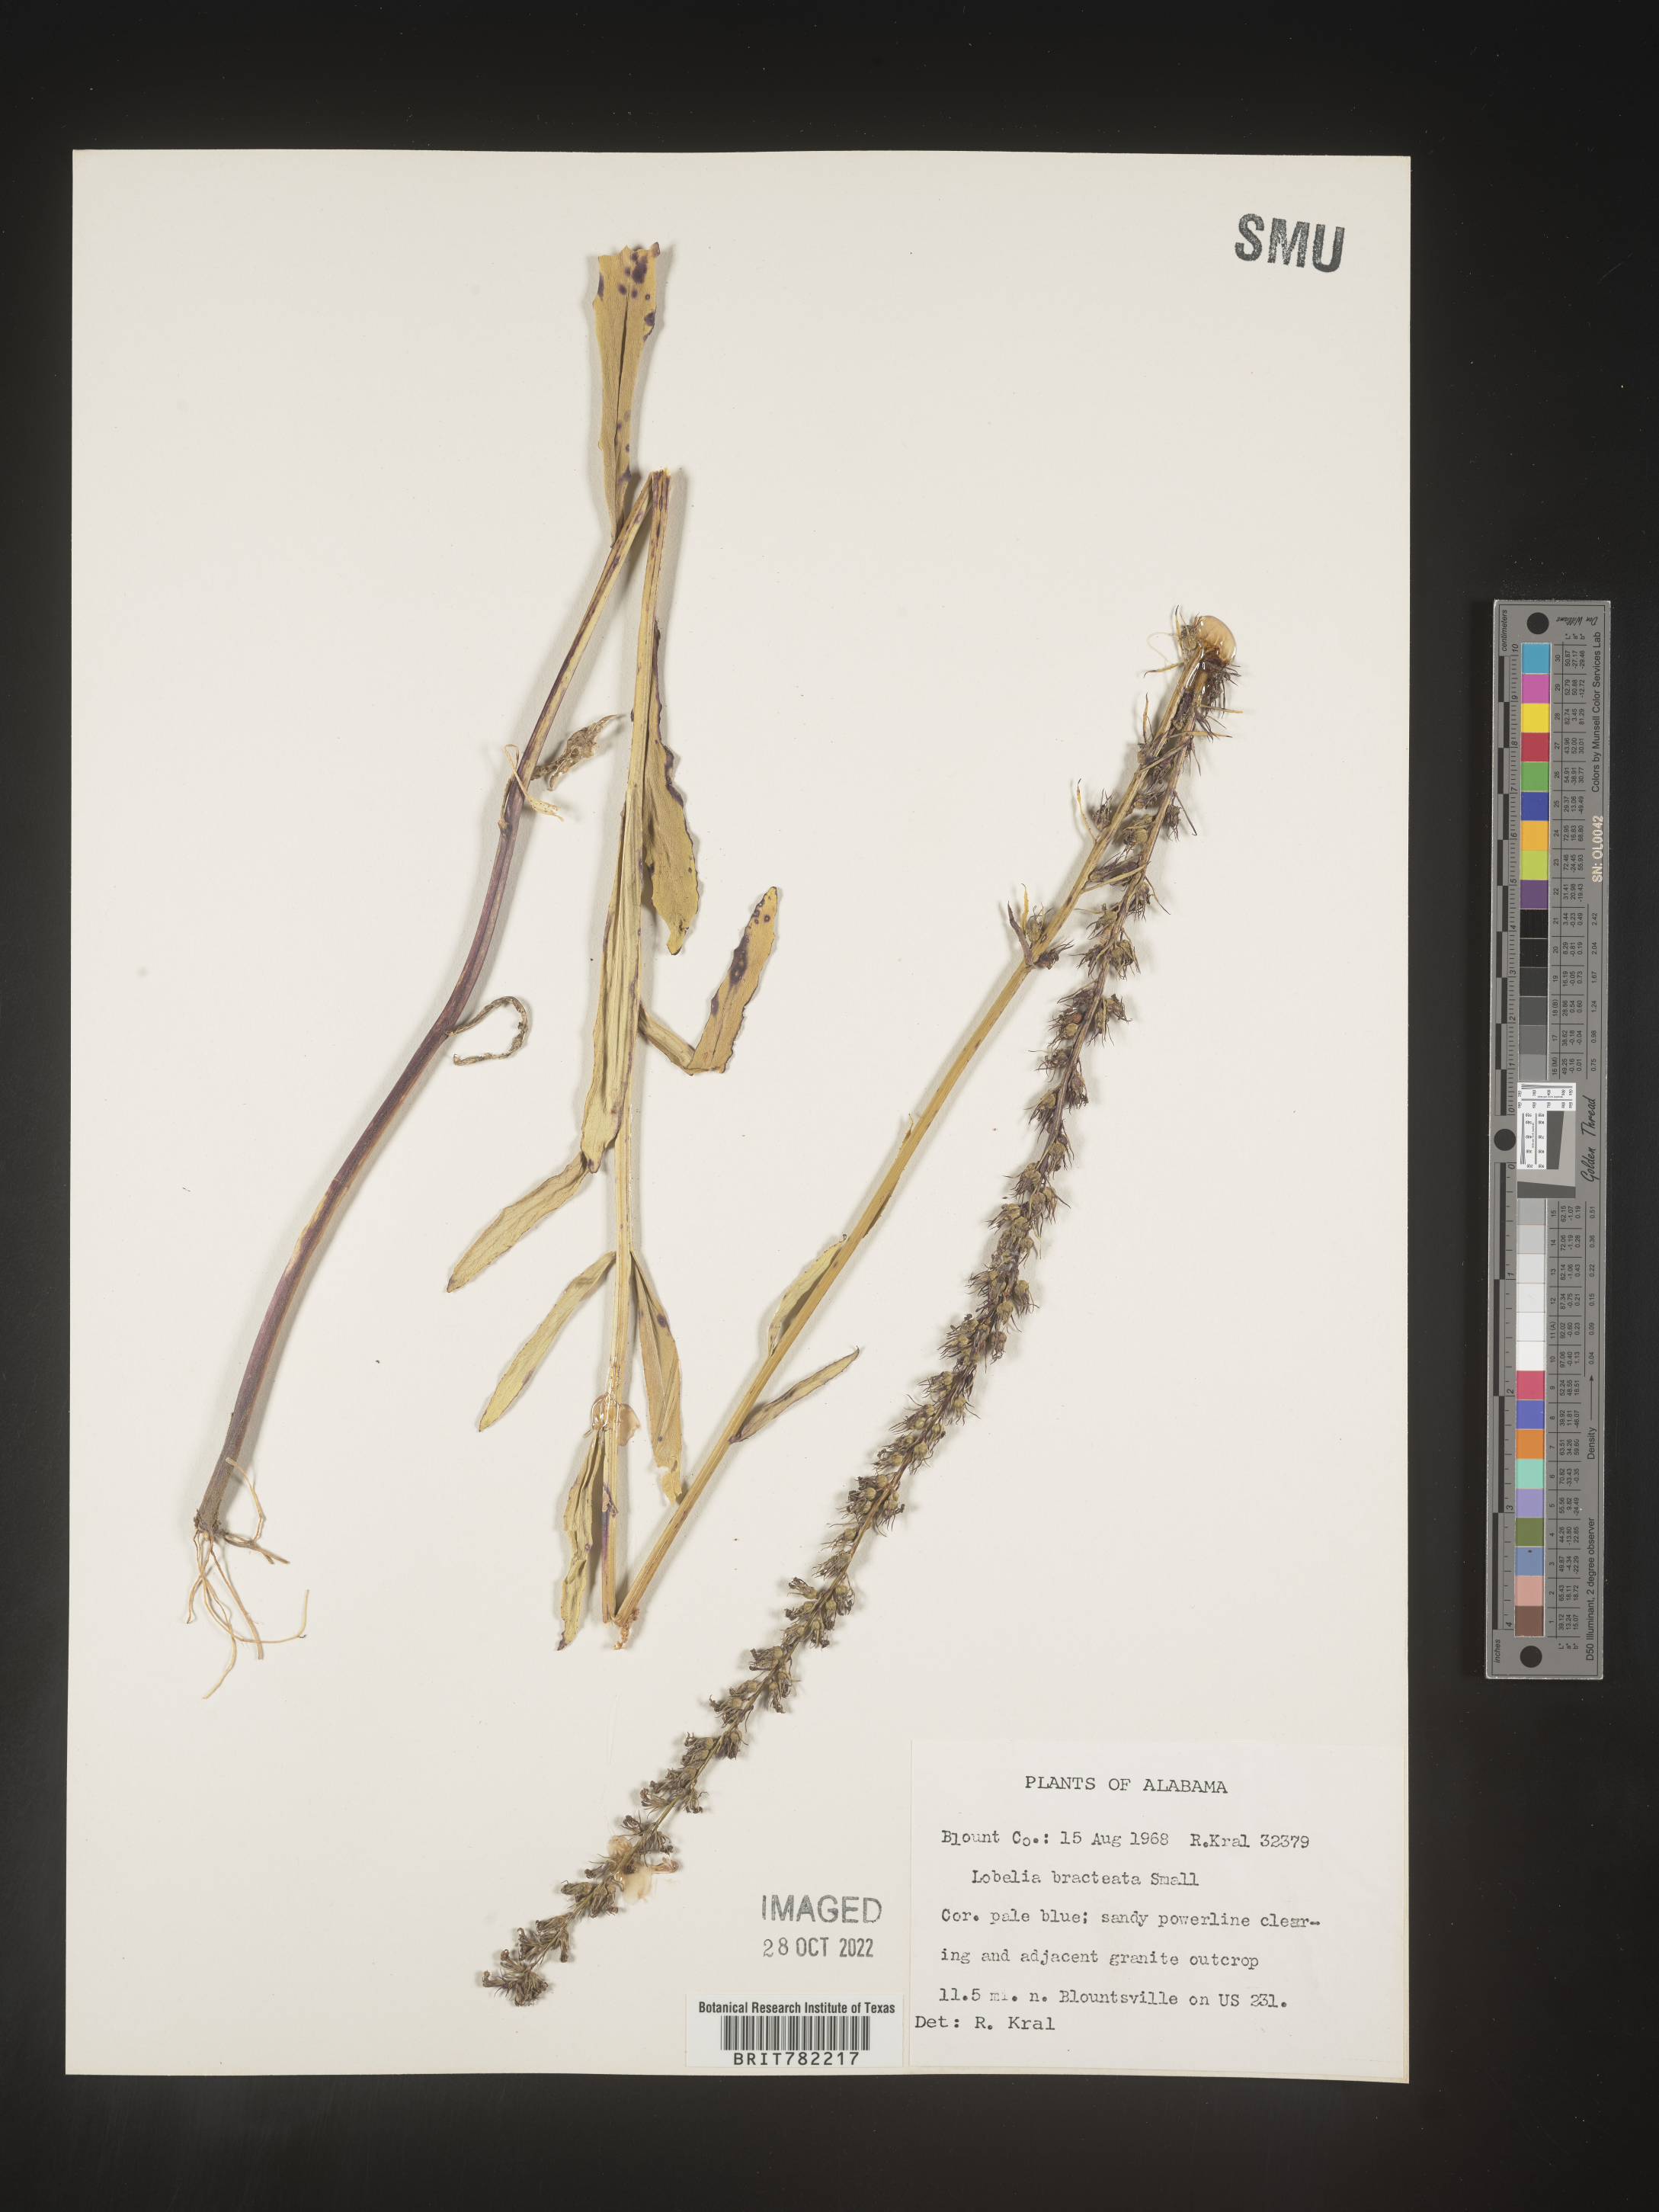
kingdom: Plantae
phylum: Tracheophyta
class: Magnoliopsida
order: Asterales
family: Campanulaceae
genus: Lobelia
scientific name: Lobelia
